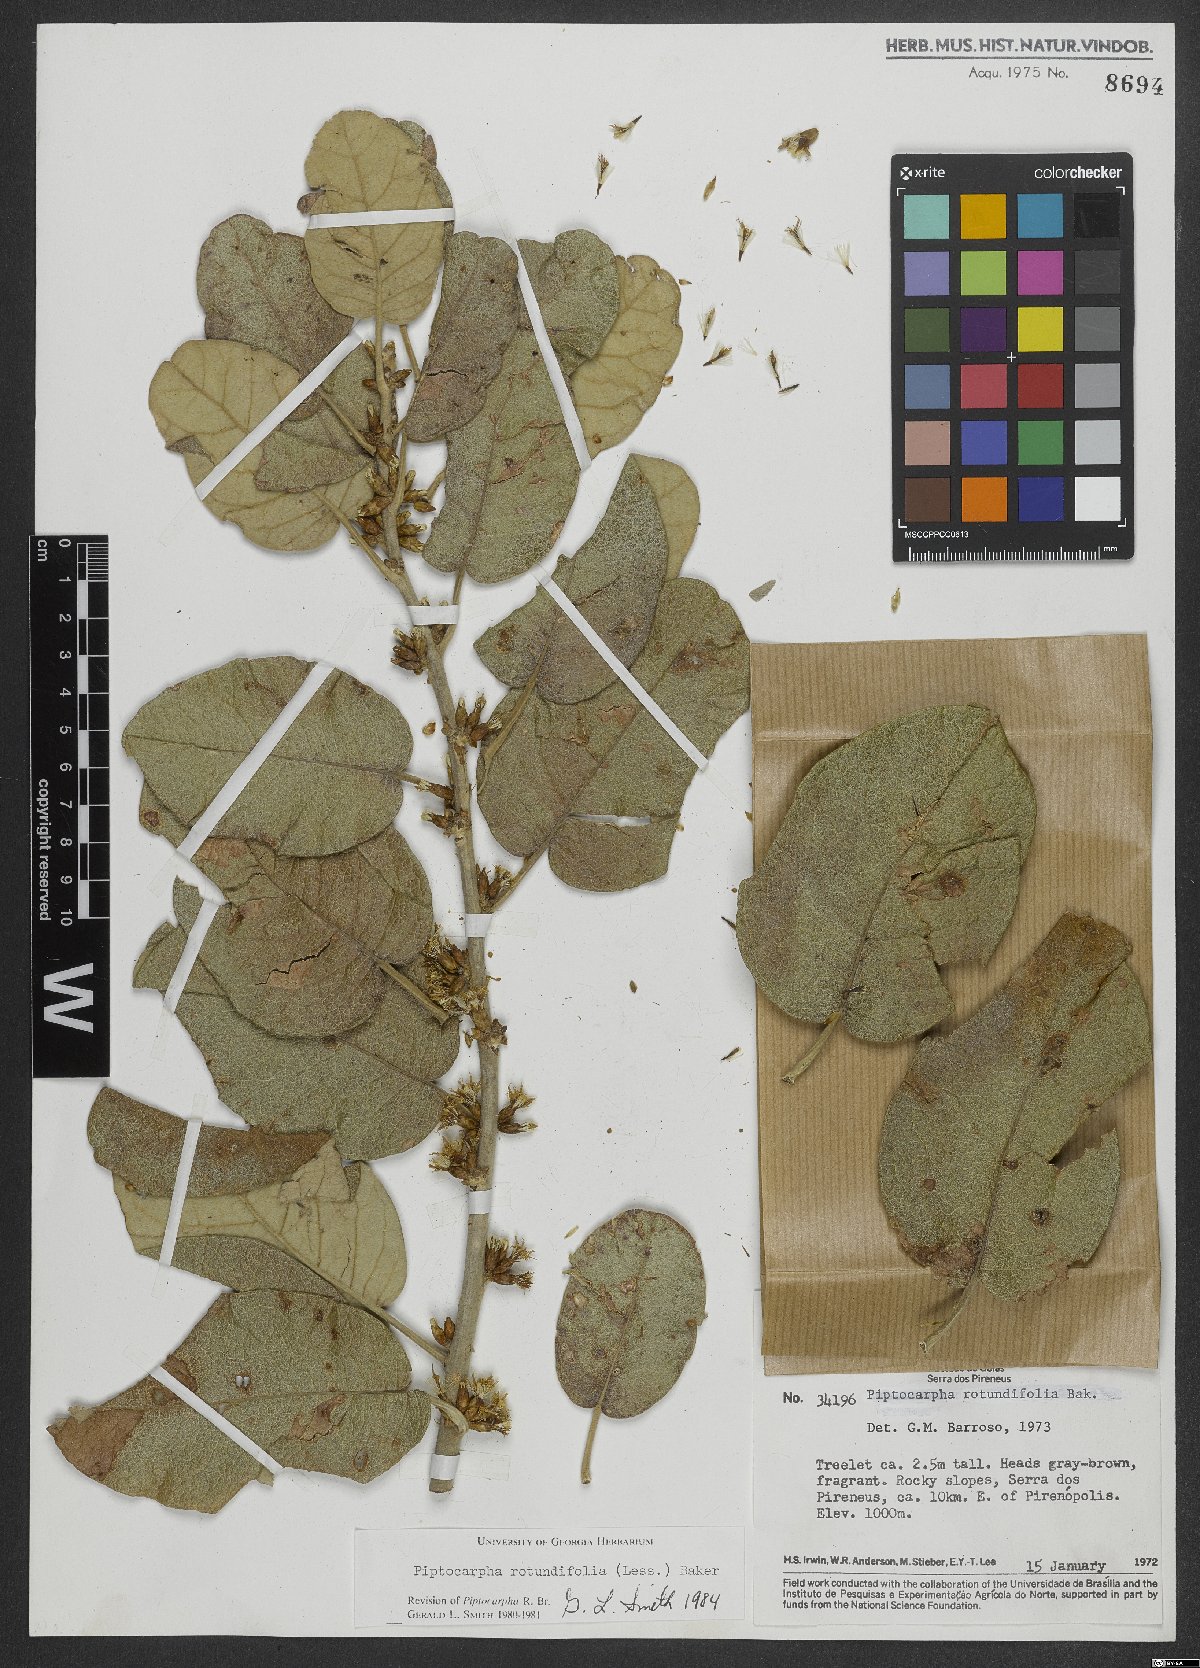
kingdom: Plantae
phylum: Tracheophyta
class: Magnoliopsida
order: Asterales
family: Asteraceae
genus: Piptocarpha
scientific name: Piptocarpha rotundifolia
